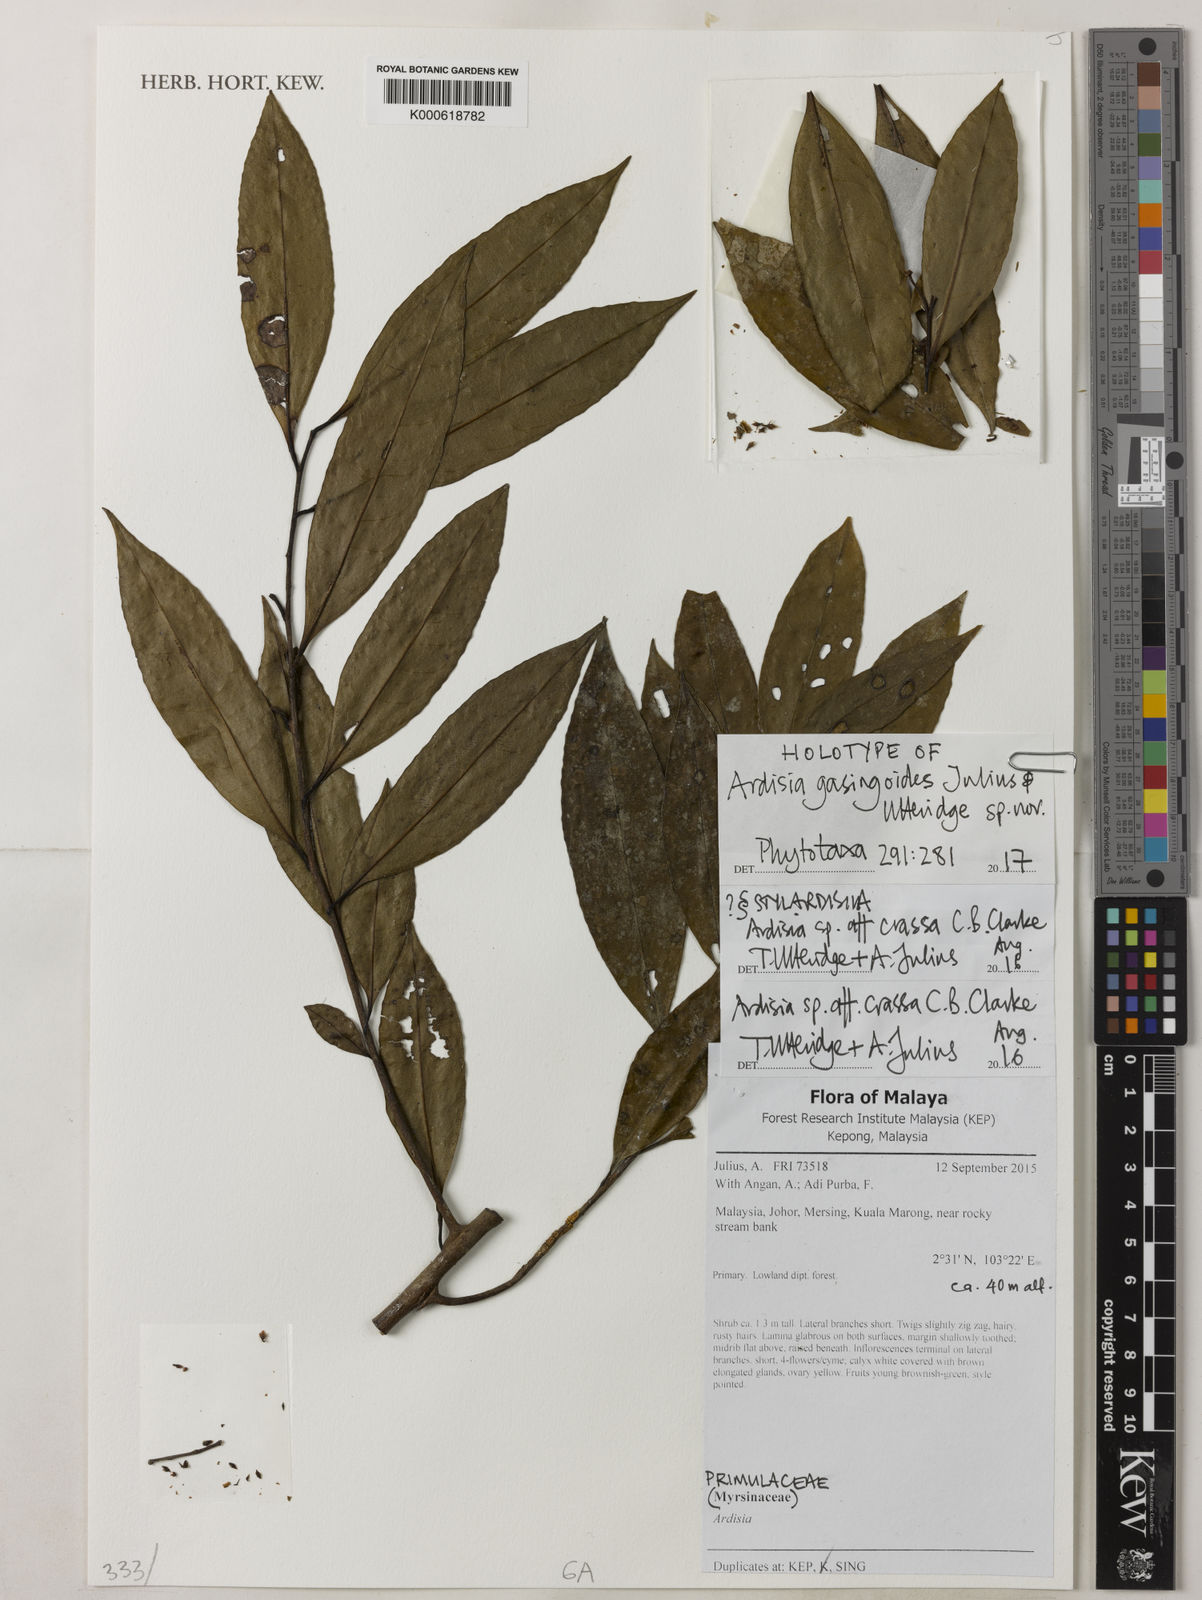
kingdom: Plantae
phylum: Tracheophyta
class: Magnoliopsida
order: Ericales
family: Primulaceae
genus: Ardisia
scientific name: Ardisia gasingoides
